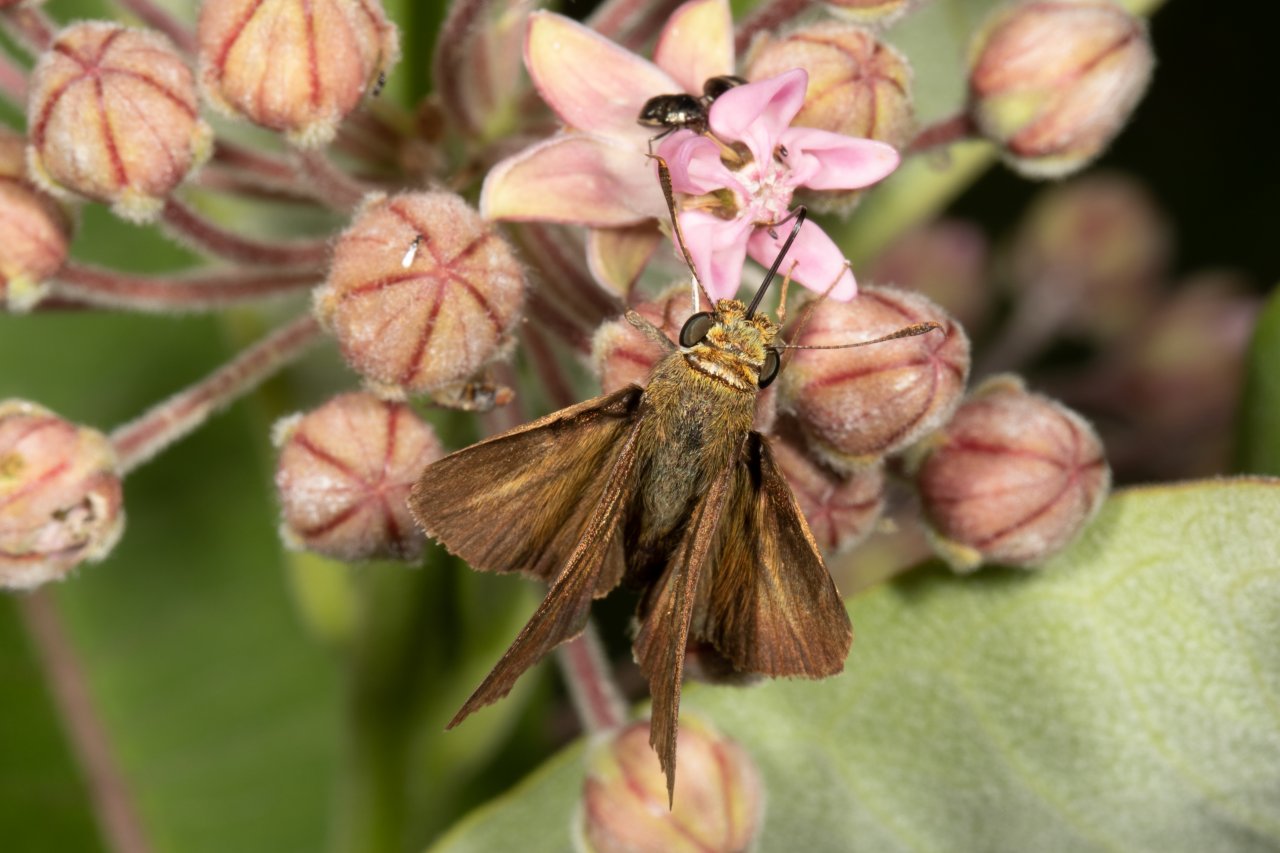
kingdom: Animalia
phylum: Arthropoda
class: Insecta
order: Lepidoptera
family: Hesperiidae
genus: Euphyes
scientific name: Euphyes vestris
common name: Dun Skipper
